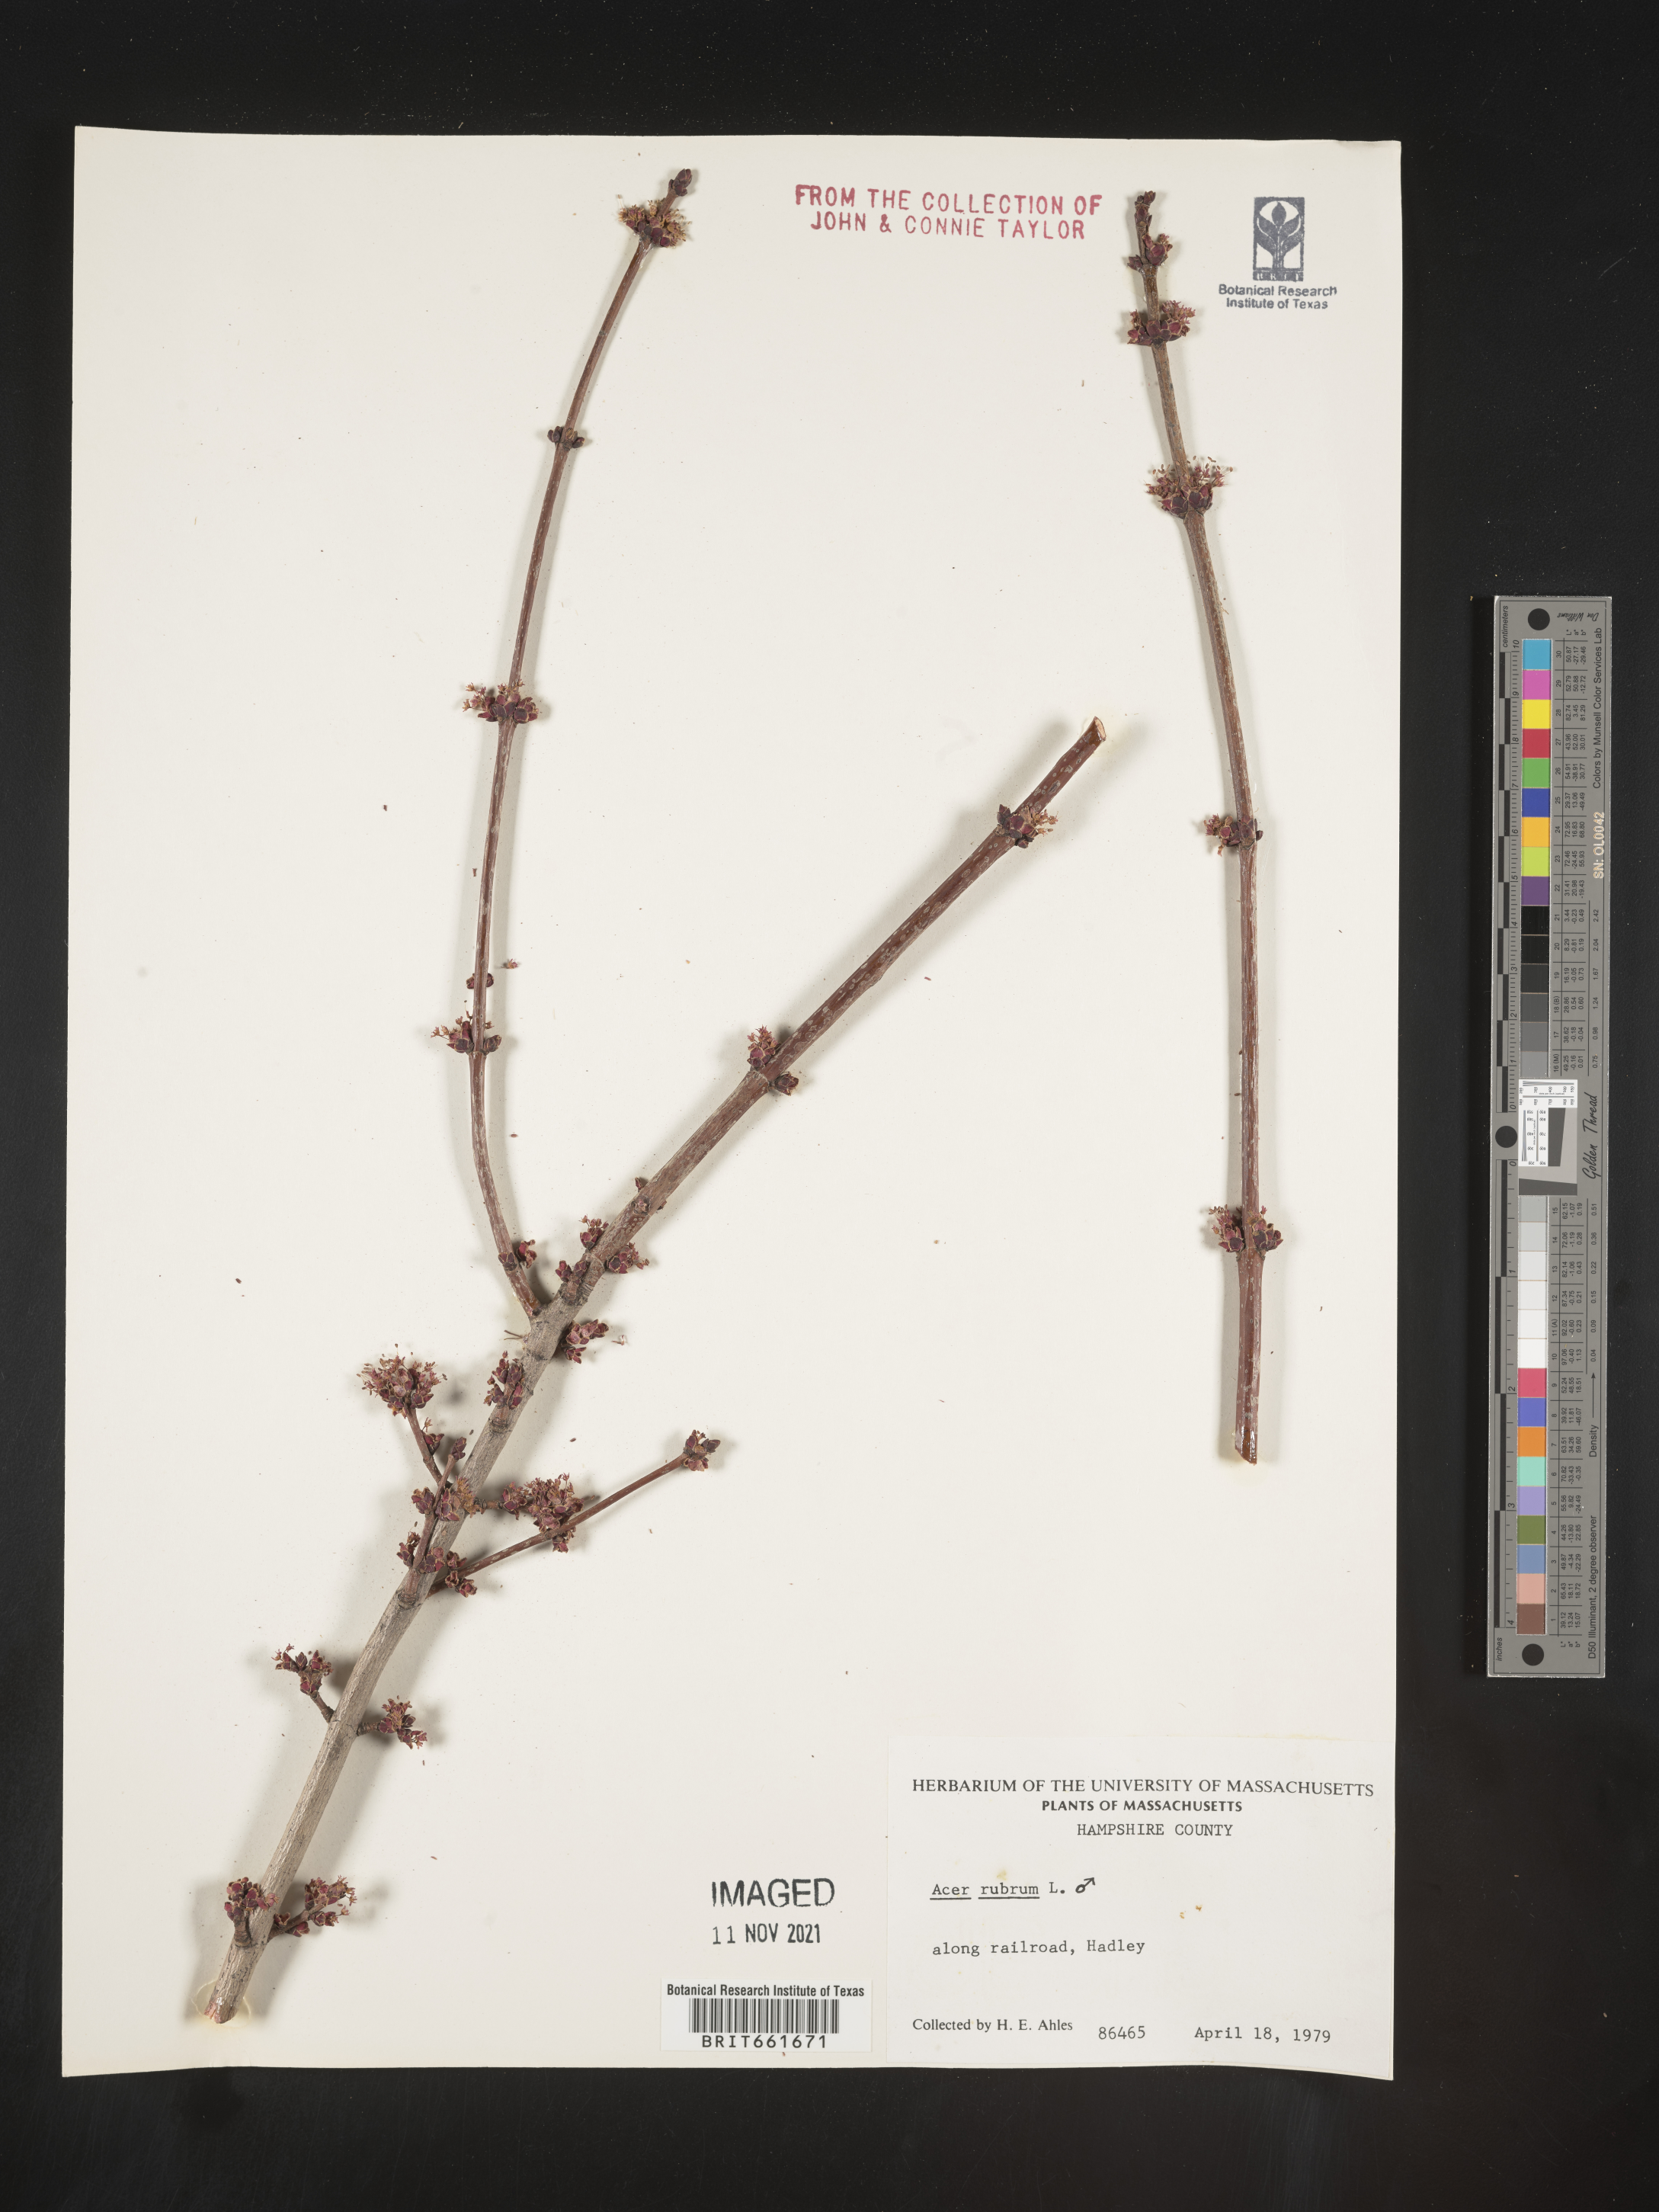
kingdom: Plantae
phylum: Tracheophyta
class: Magnoliopsida
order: Sapindales
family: Sapindaceae
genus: Acer
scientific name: Acer rubrum
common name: Red maple
